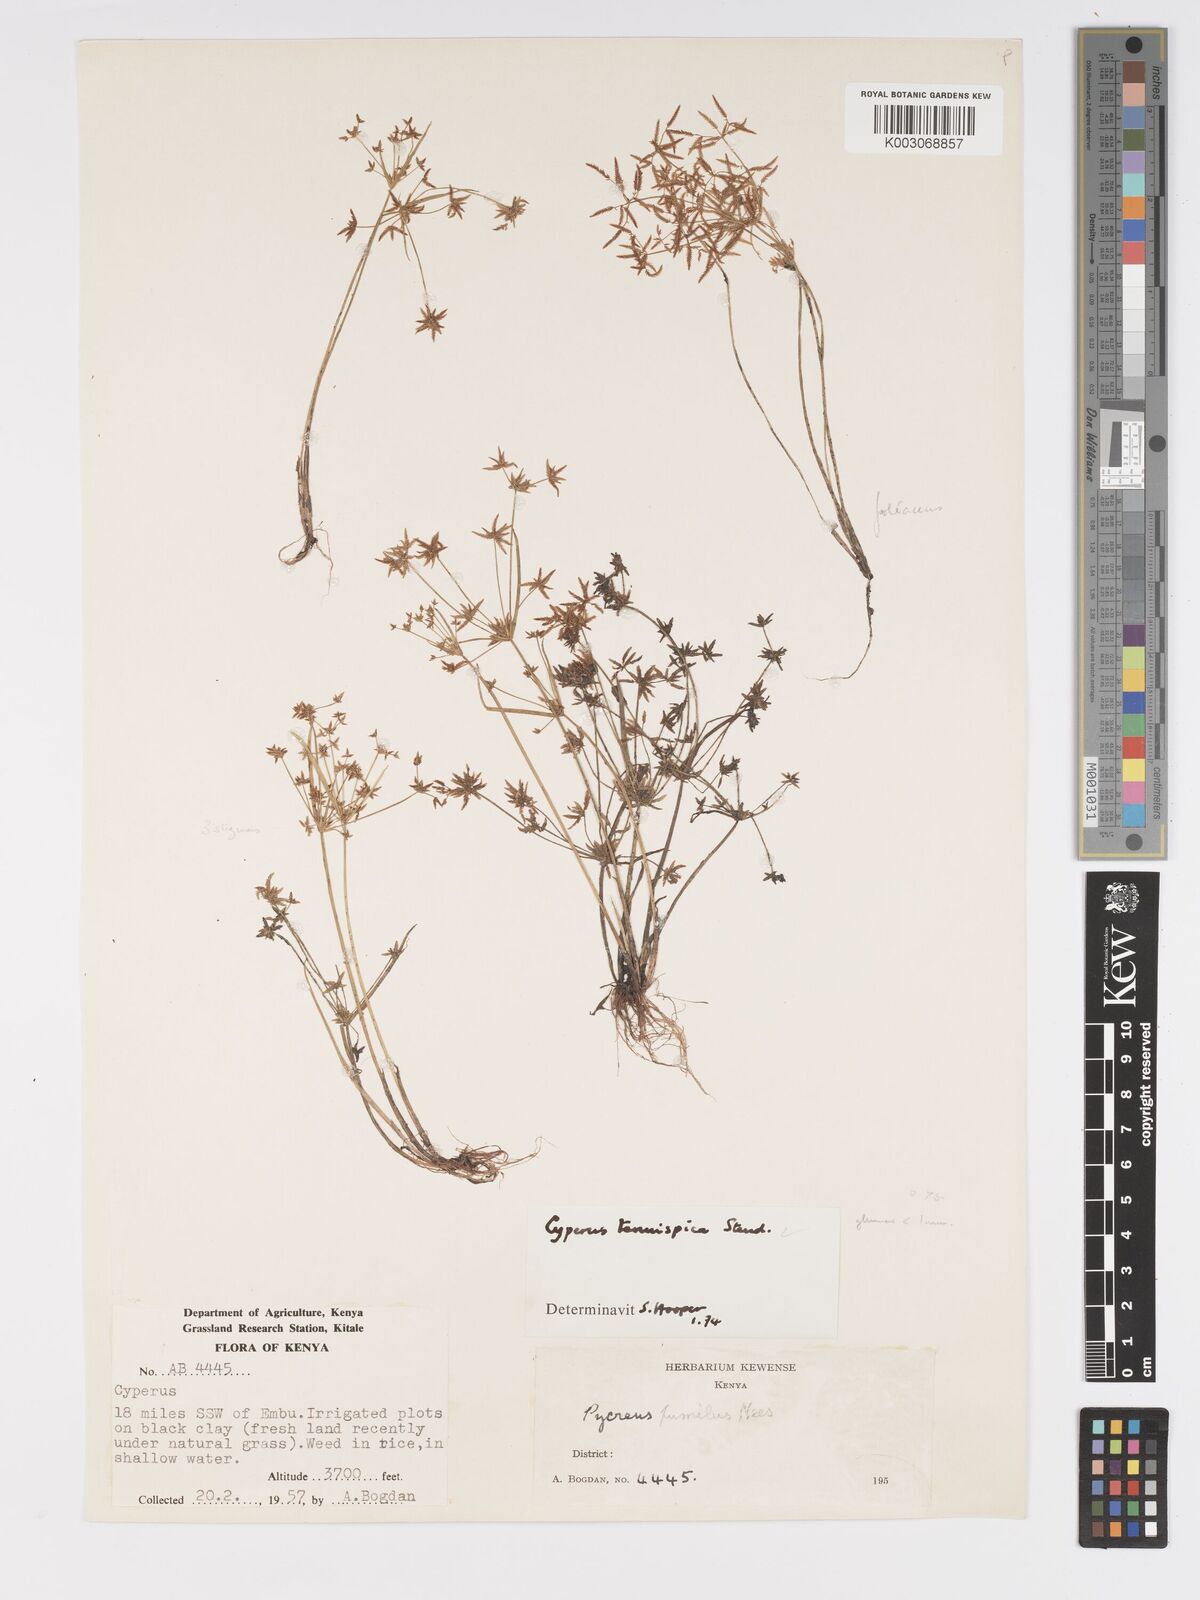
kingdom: Plantae
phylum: Tracheophyta
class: Liliopsida
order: Poales
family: Cyperaceae
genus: Cyperus
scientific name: Cyperus tenuispica
